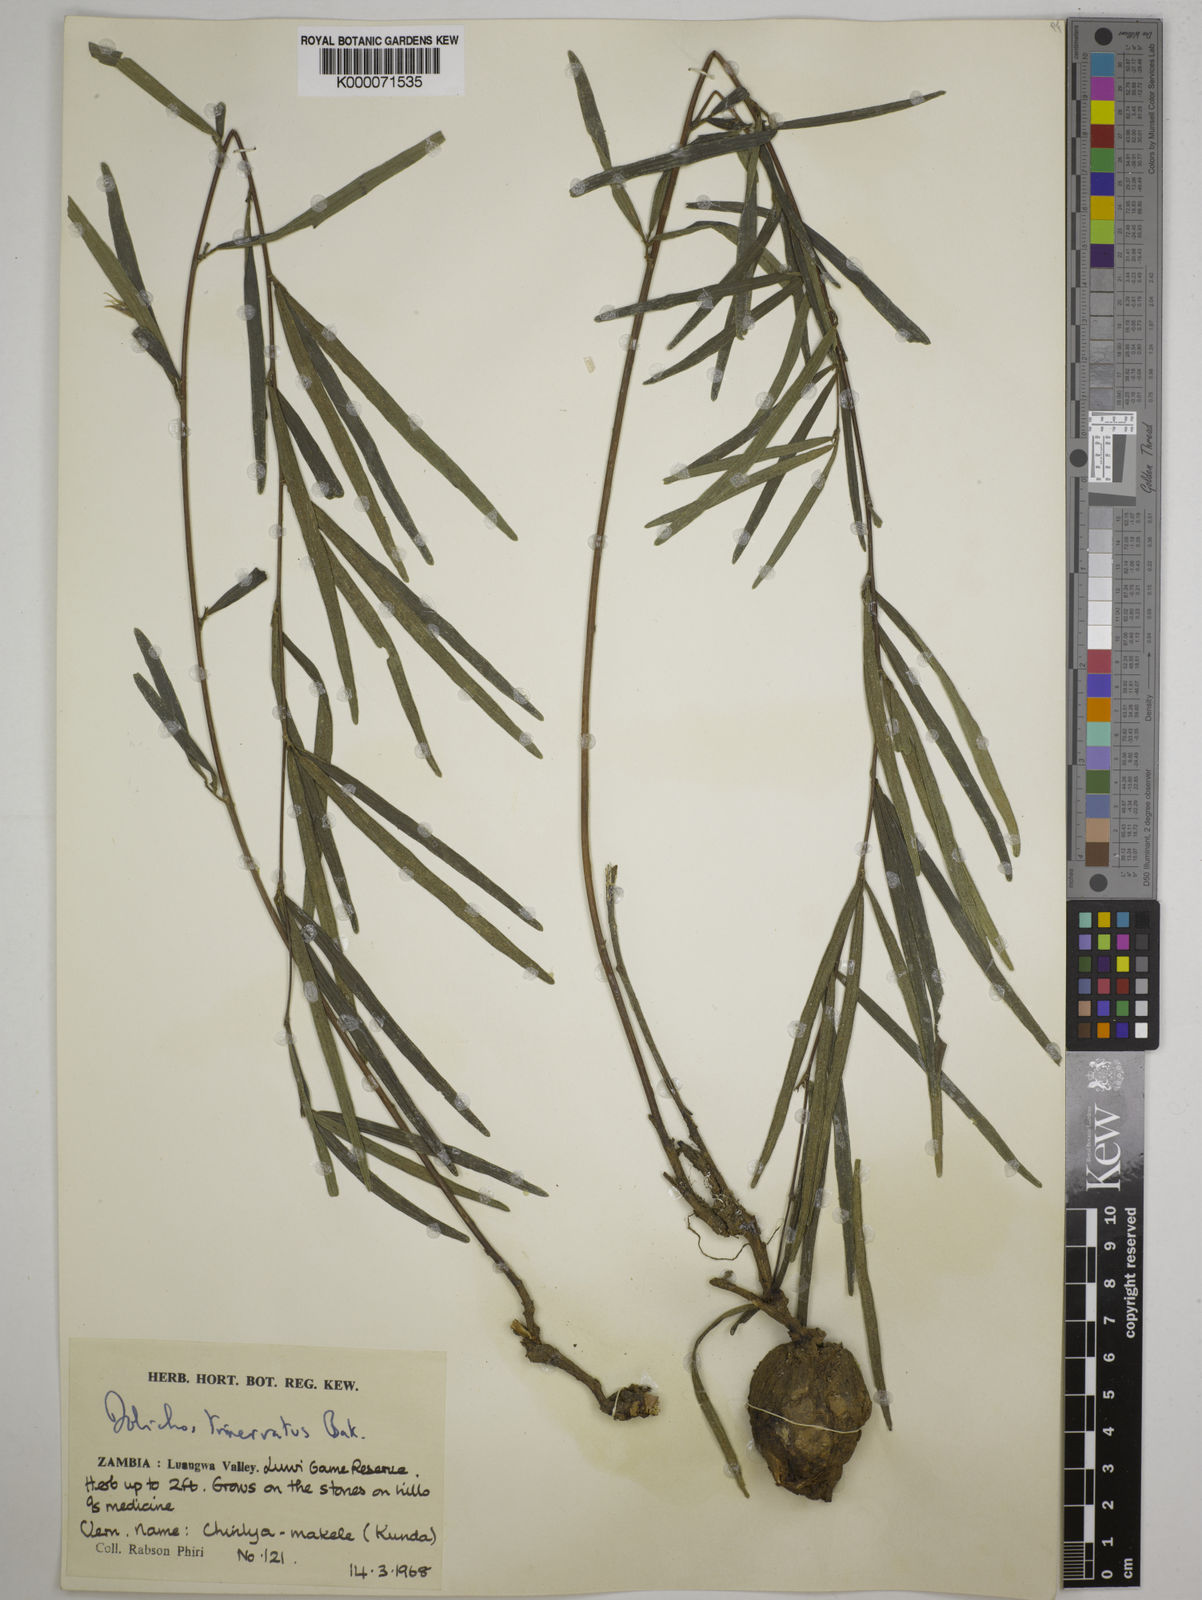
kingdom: Plantae
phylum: Tracheophyta
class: Magnoliopsida
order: Fabales
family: Fabaceae
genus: Dolichos
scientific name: Dolichos trinervatus
